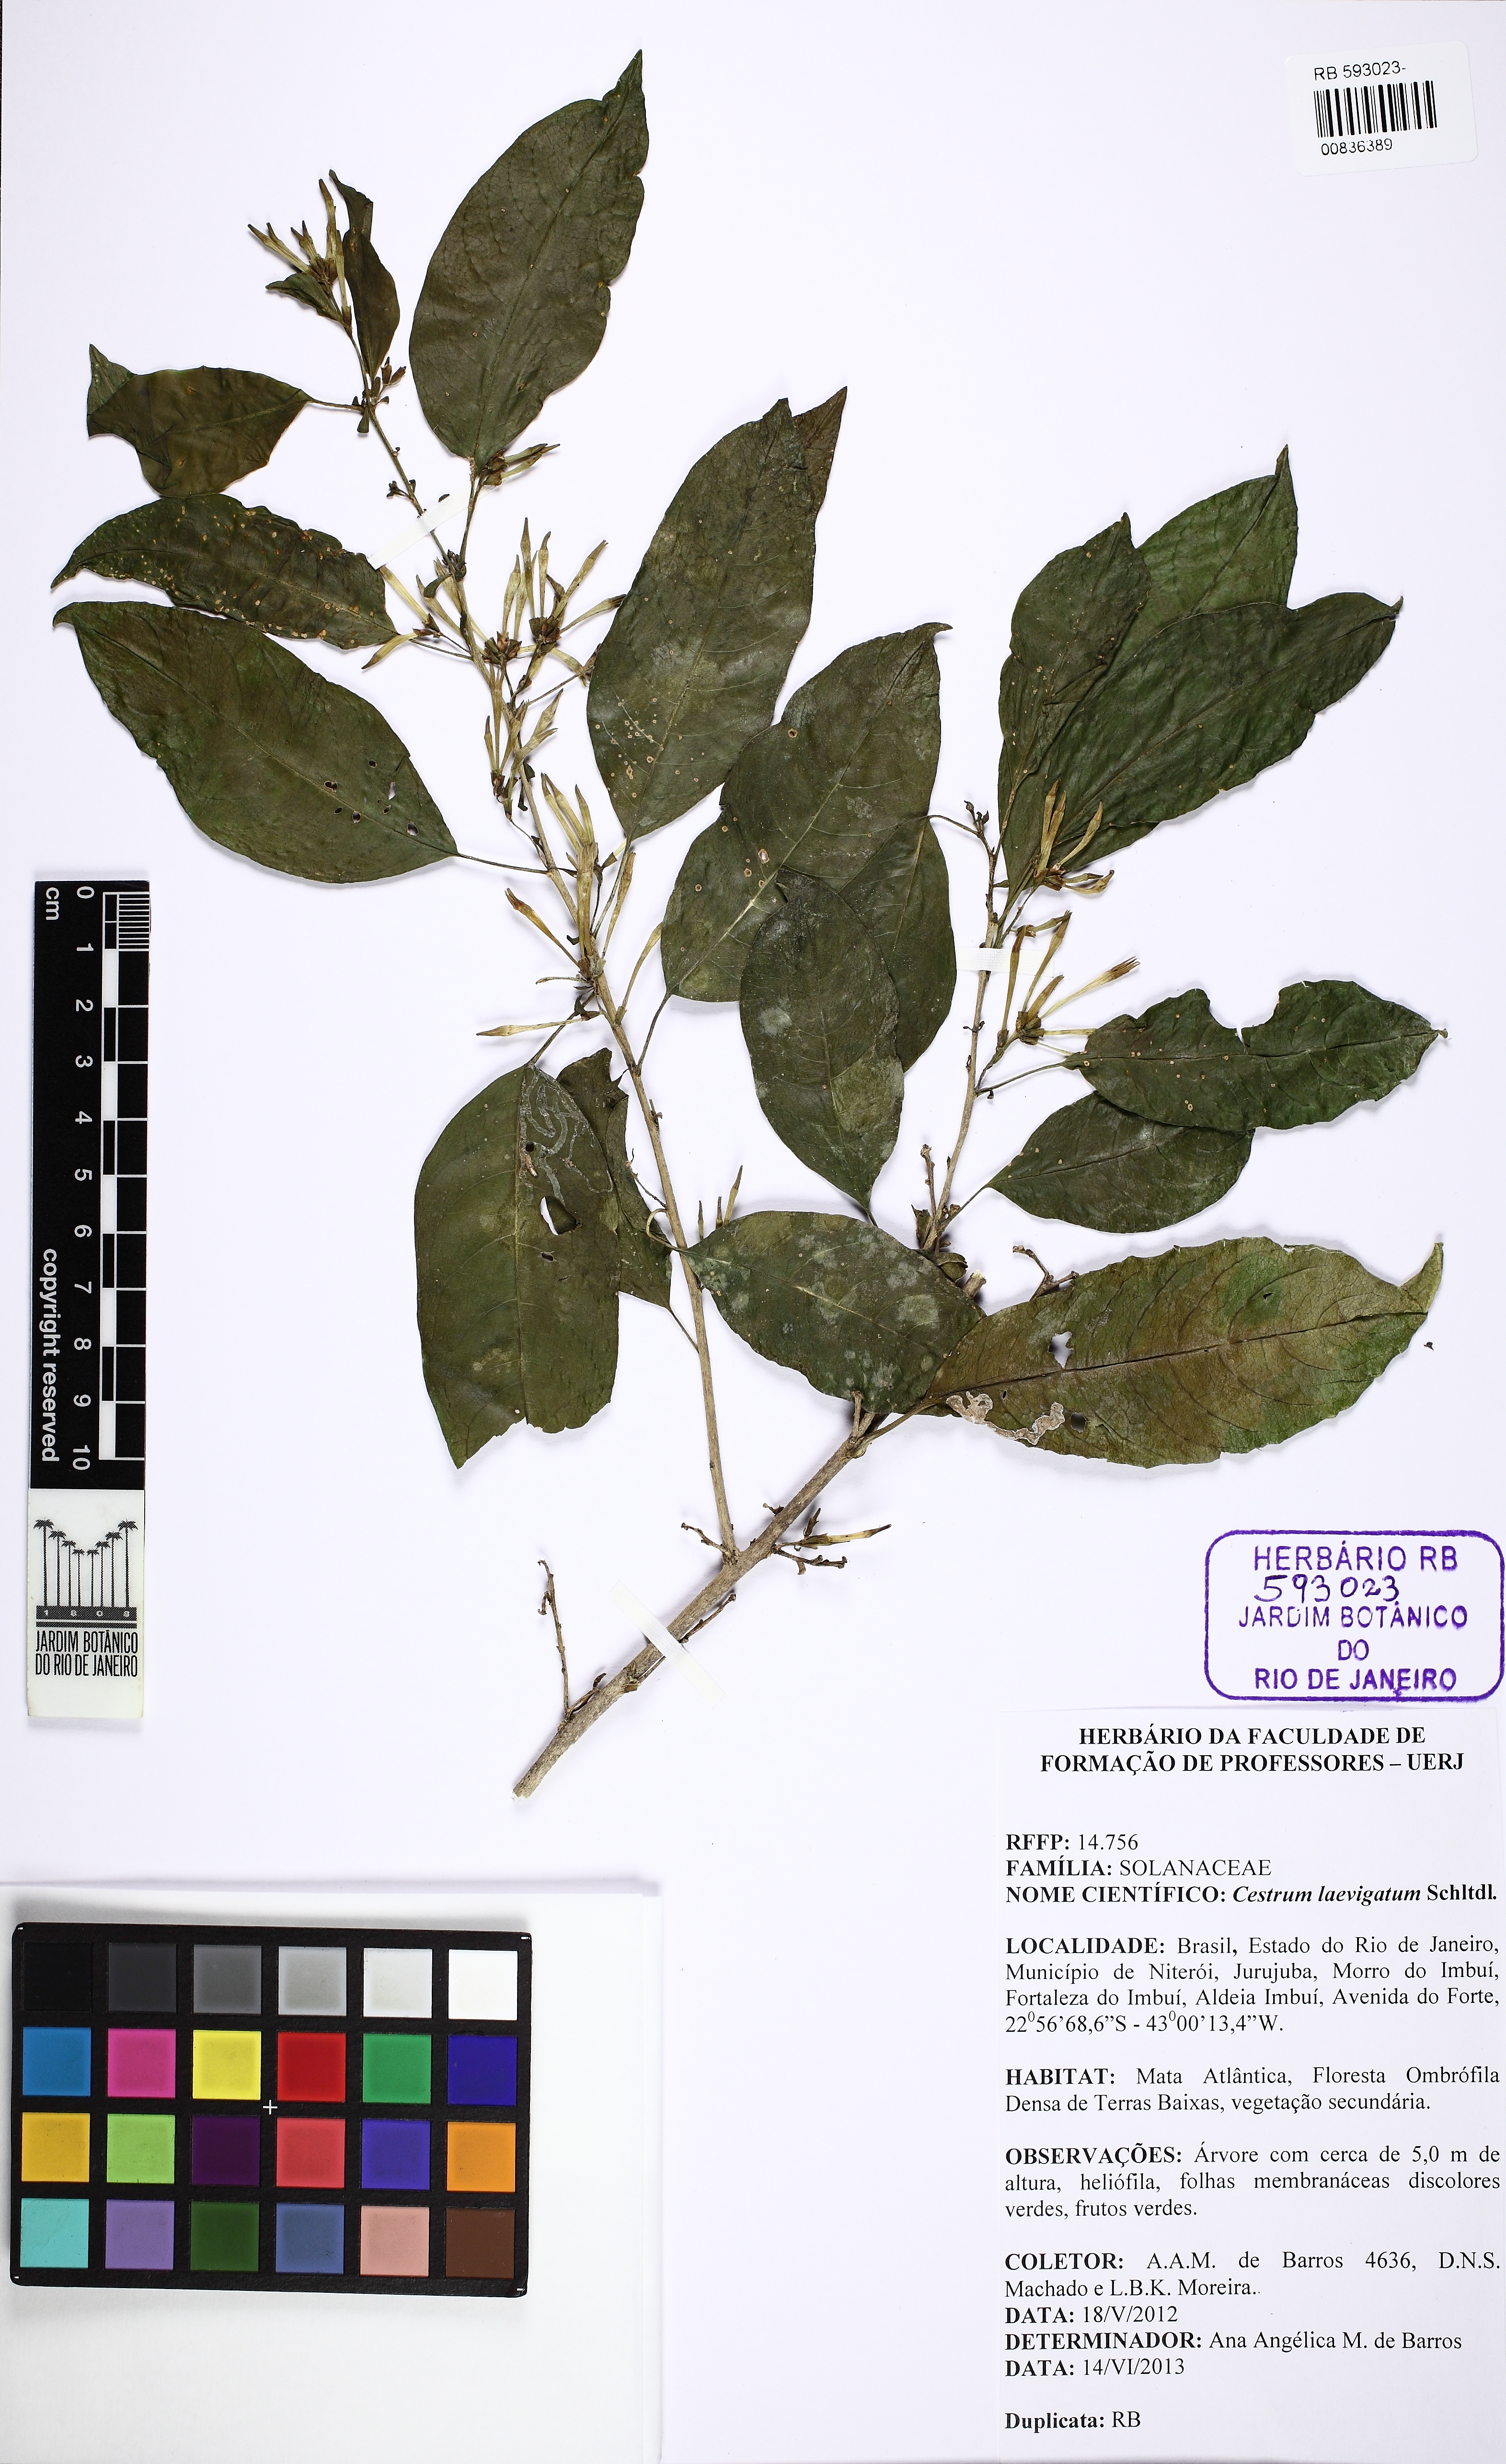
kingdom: Plantae
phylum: Tracheophyta
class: Magnoliopsida
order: Solanales
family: Solanaceae
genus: Cestrum
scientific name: Cestrum laevigatum
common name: Inkberry
